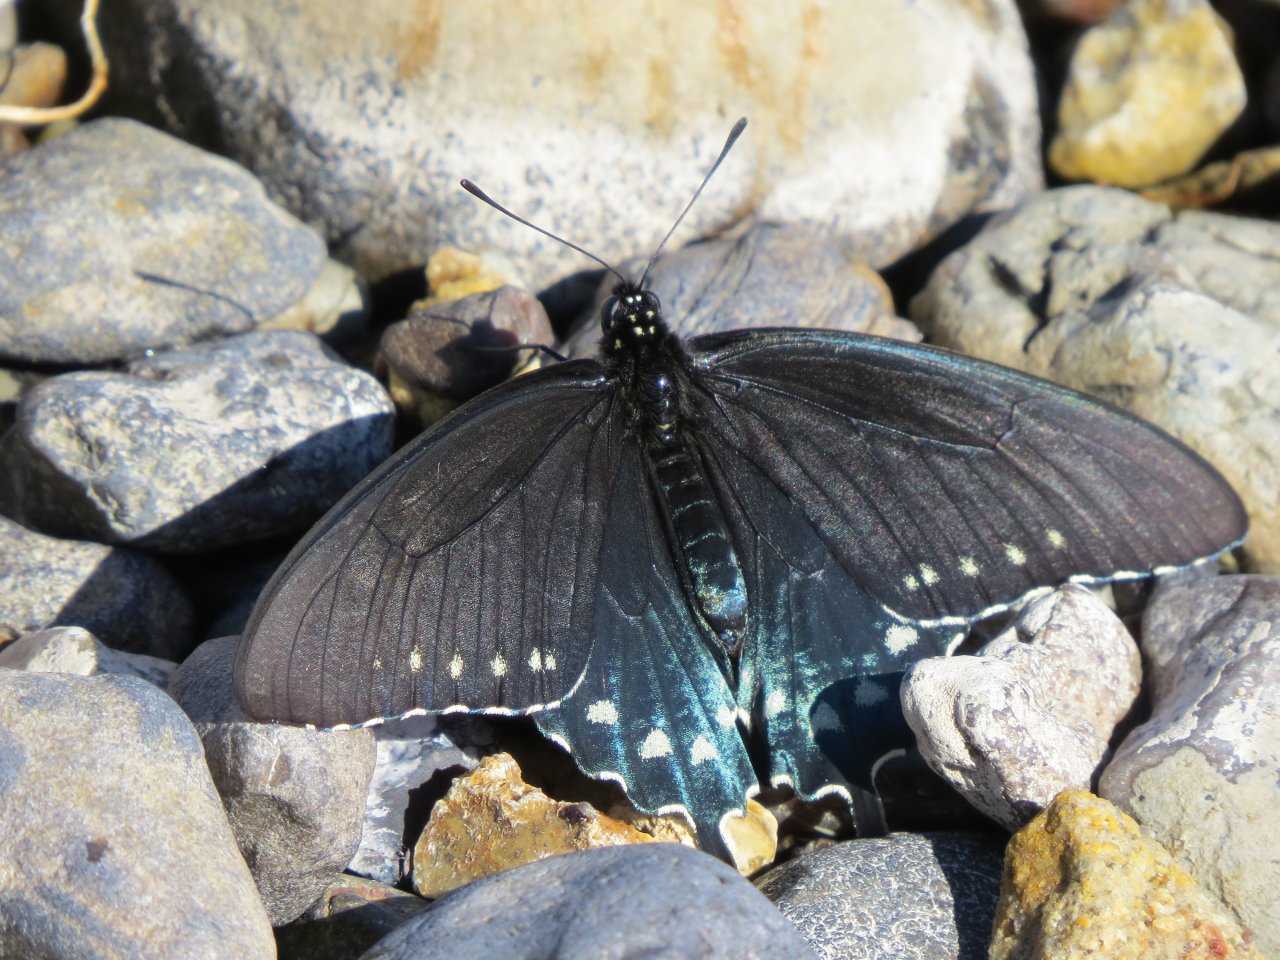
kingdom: Animalia
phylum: Arthropoda
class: Insecta
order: Lepidoptera
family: Papilionidae
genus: Battus
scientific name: Battus philenor
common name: Pipevine Swallowtail
